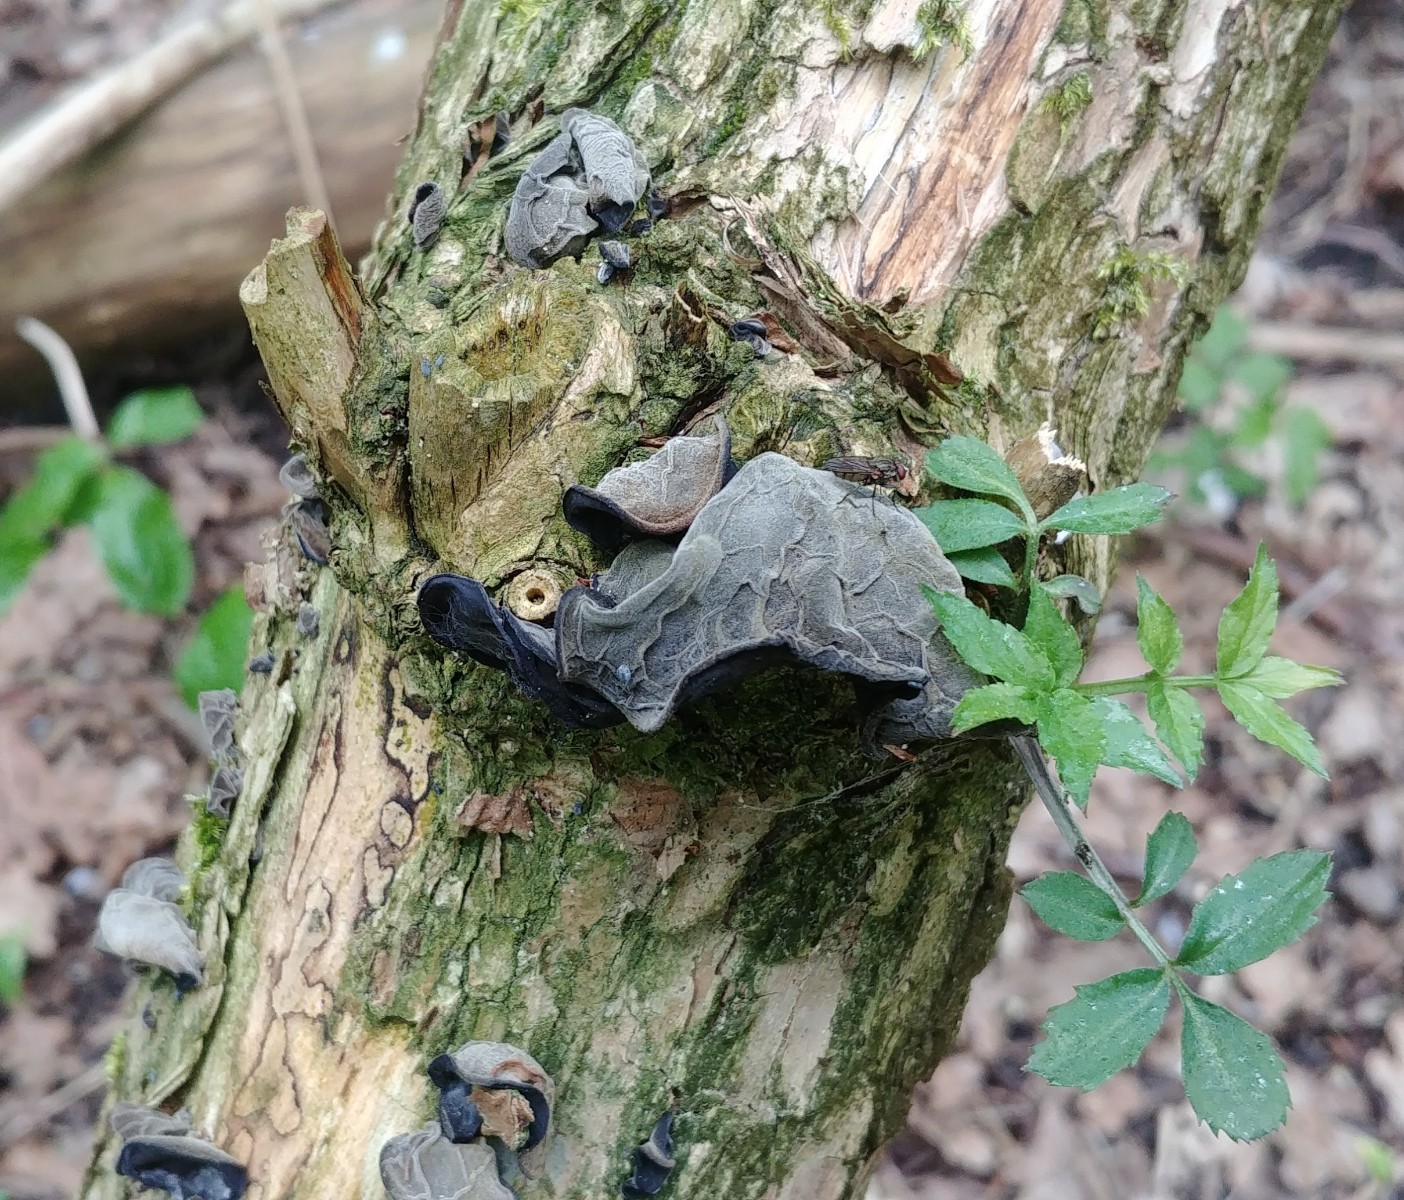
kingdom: Fungi
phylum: Basidiomycota
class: Agaricomycetes
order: Auriculariales
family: Auriculariaceae
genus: Auricularia
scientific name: Auricularia auricula-judae
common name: almindelig judasøre
